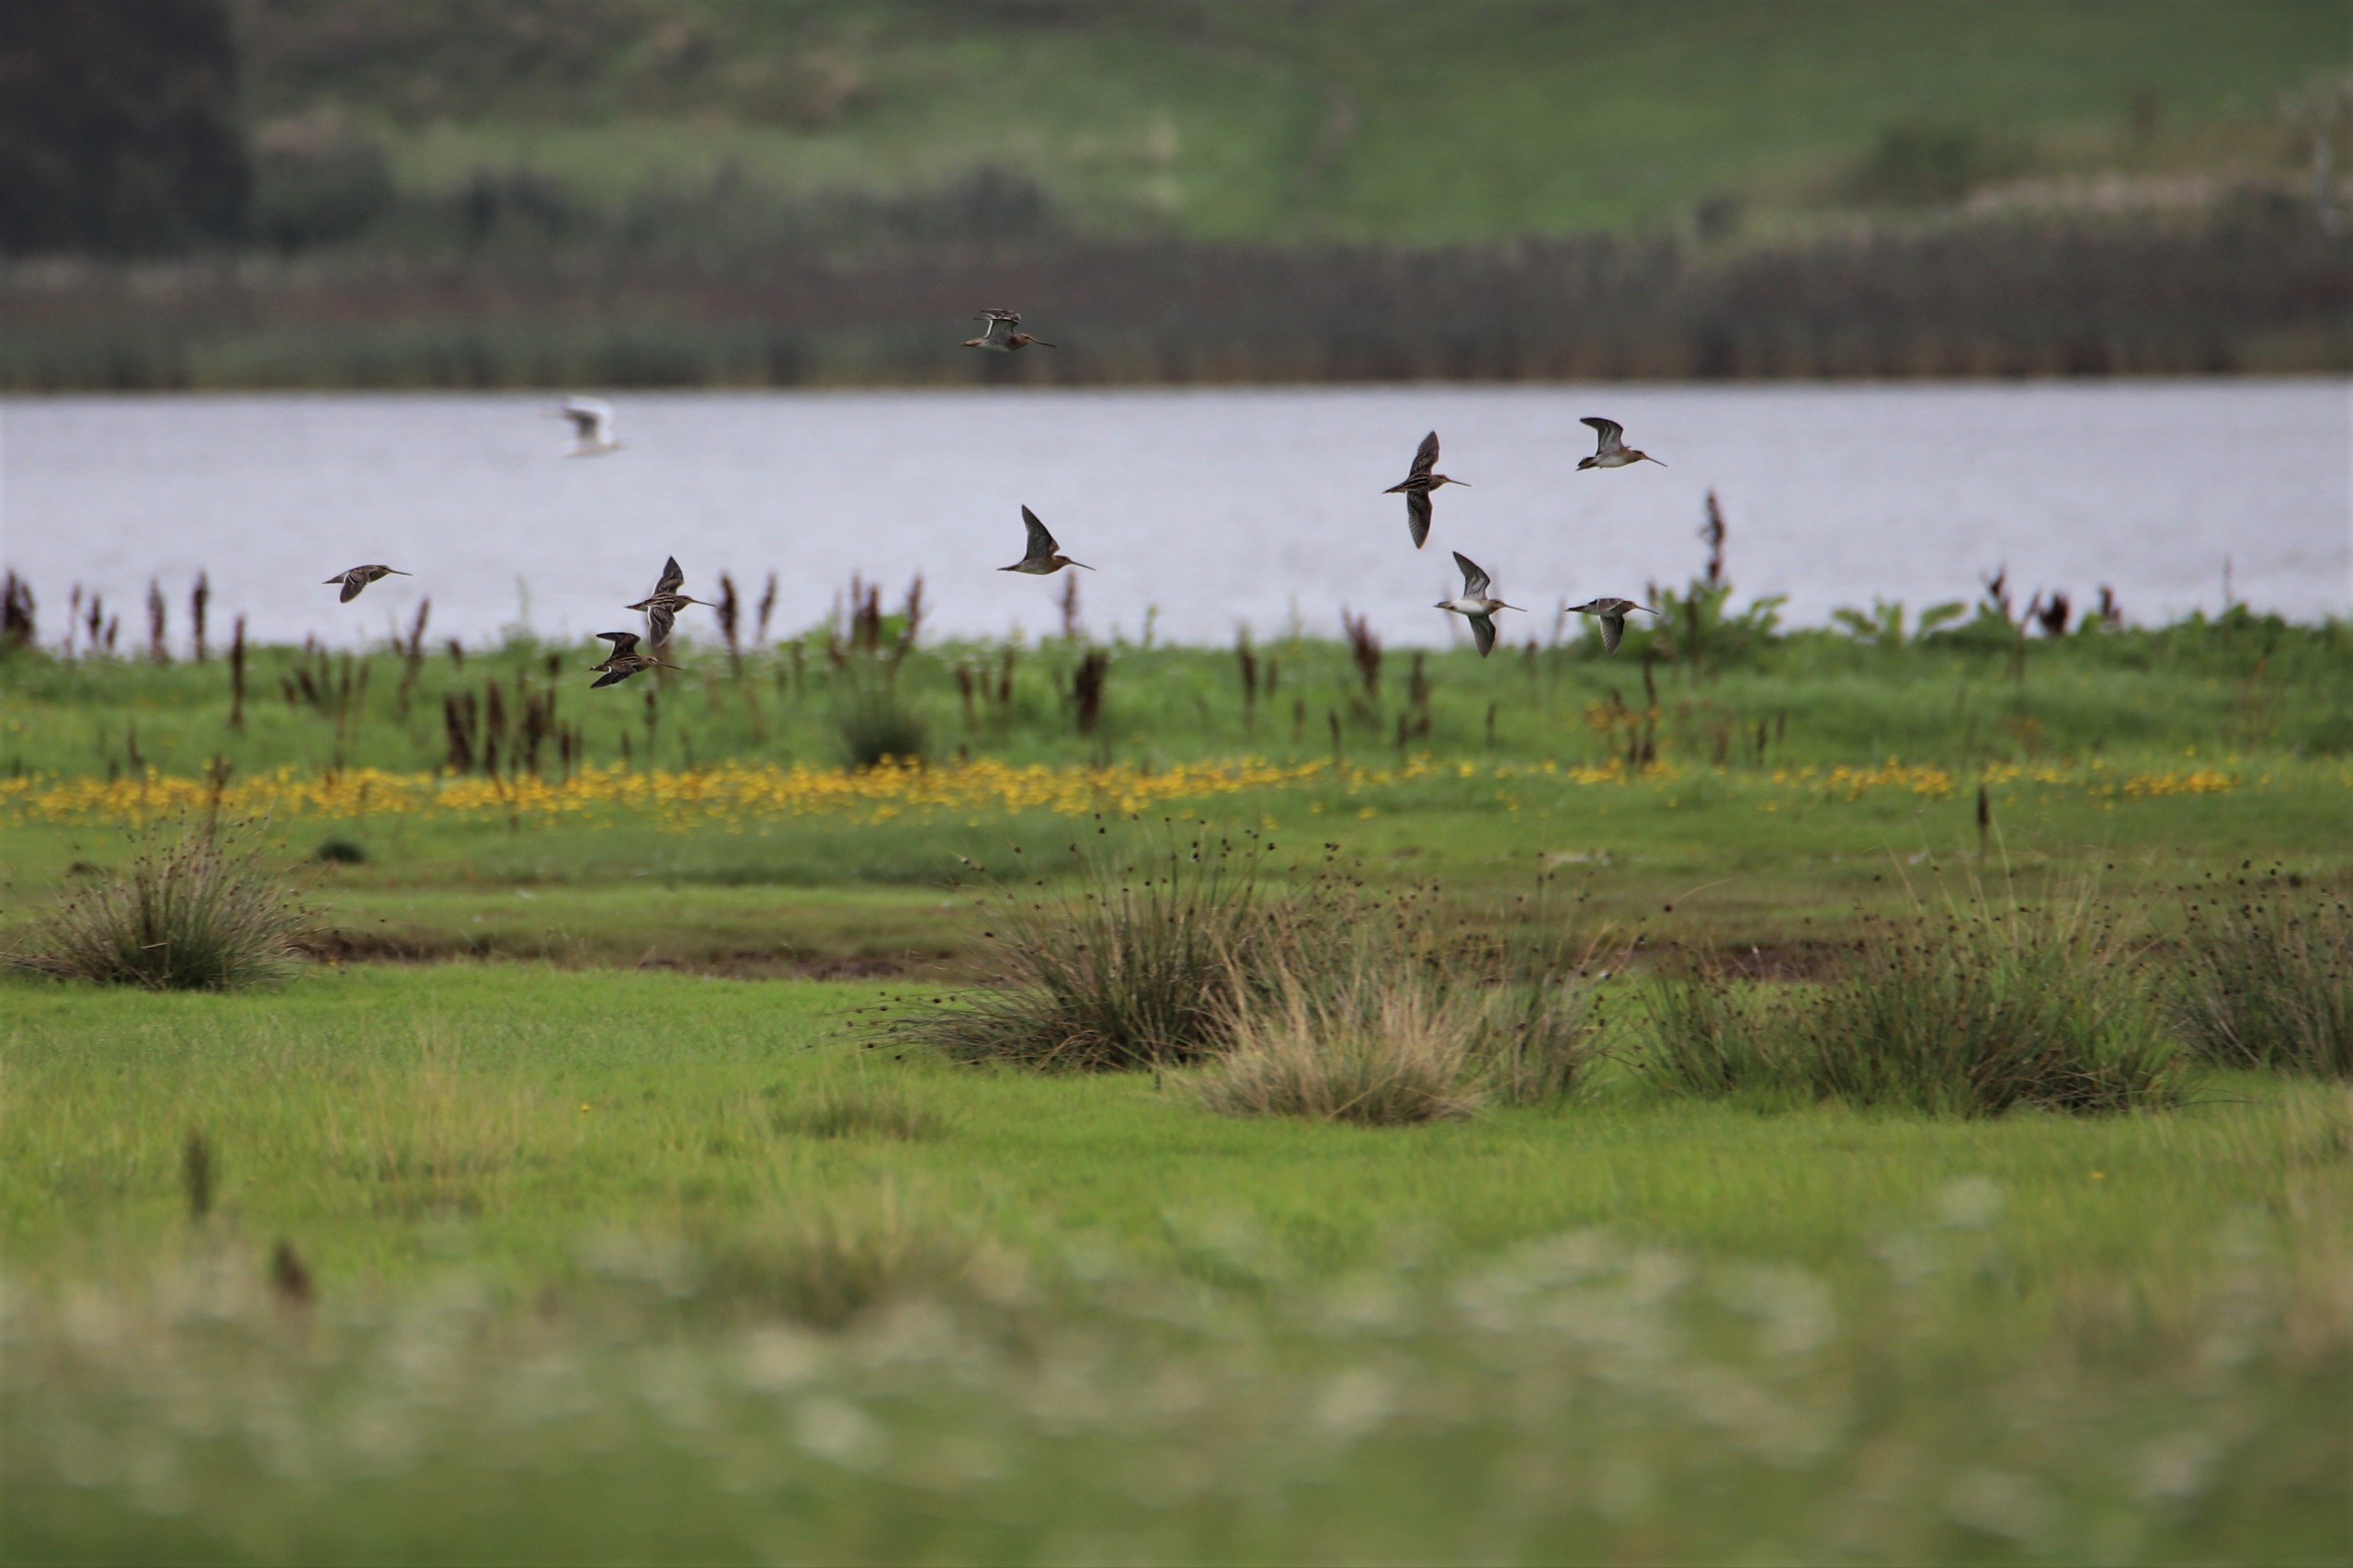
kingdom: Animalia
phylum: Chordata
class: Aves
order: Charadriiformes
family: Scolopacidae
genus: Gallinago
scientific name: Gallinago gallinago
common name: Dobbeltbekkasin
